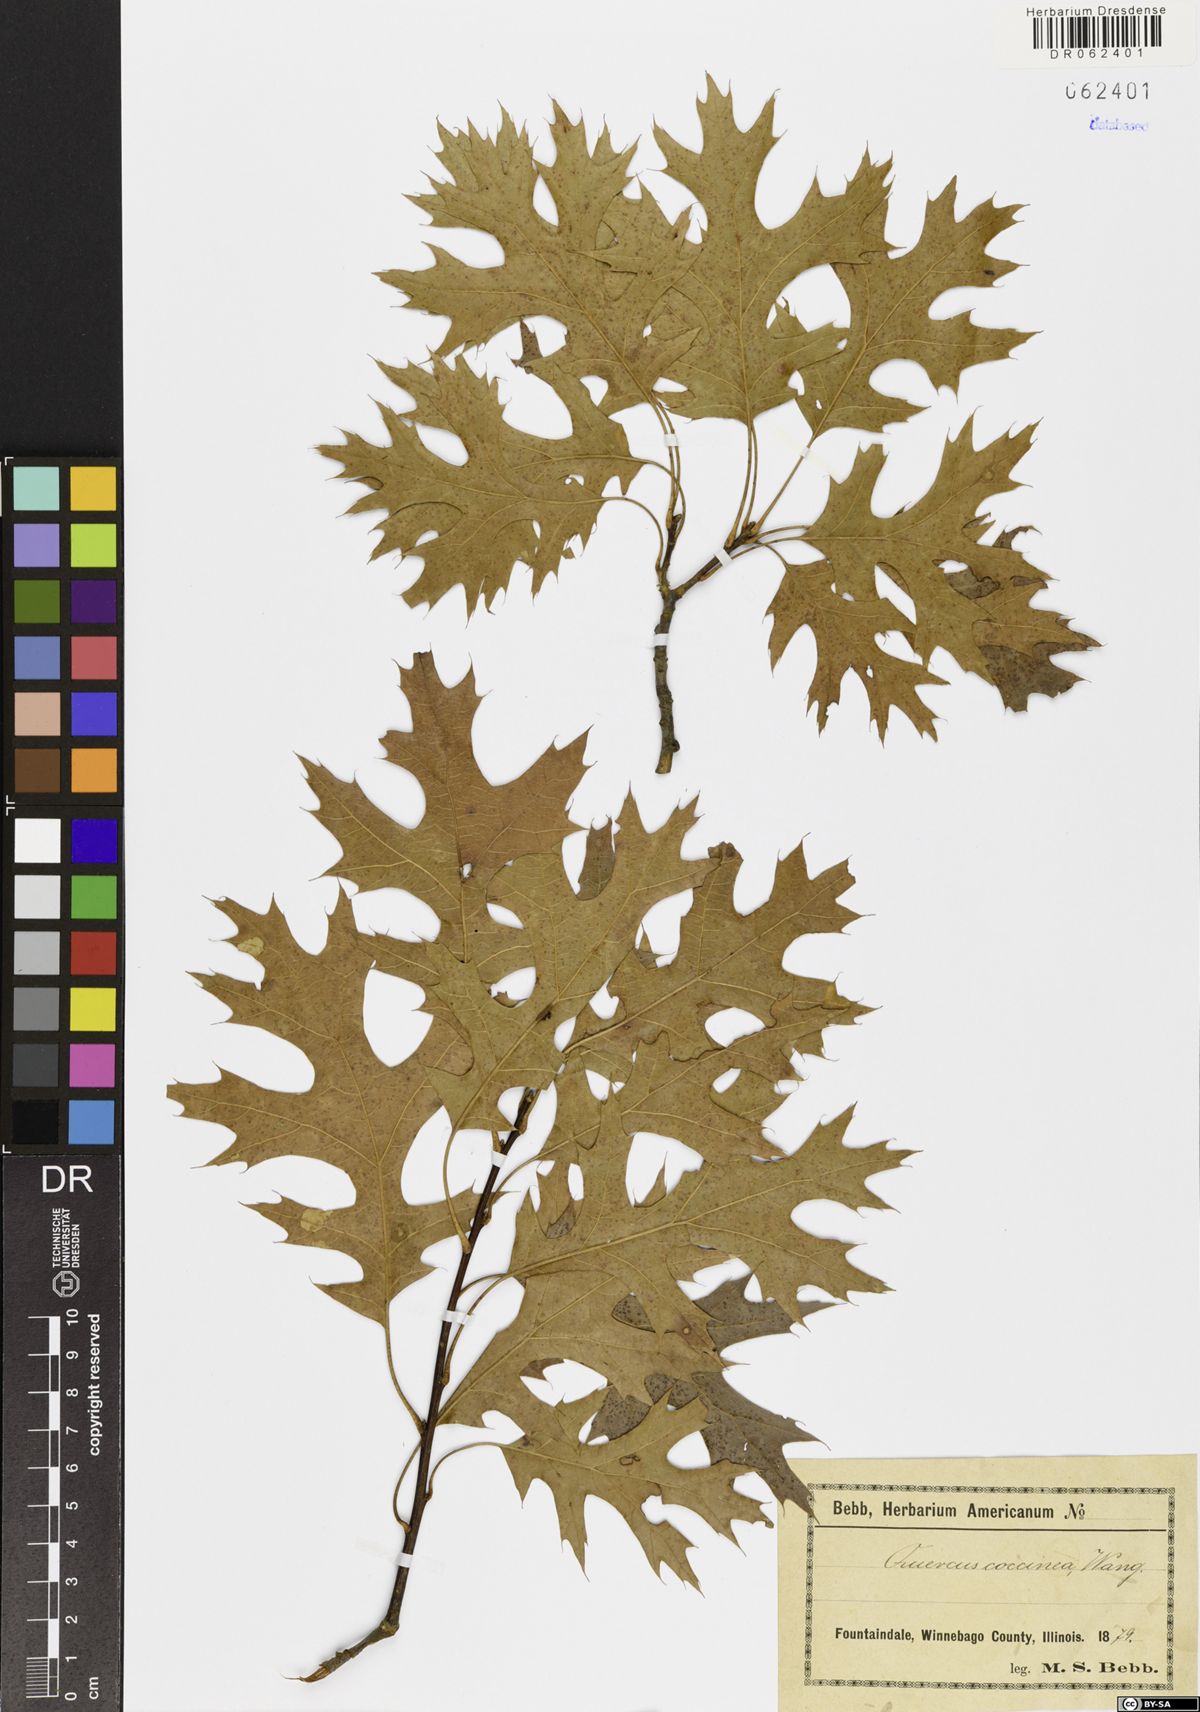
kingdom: Plantae
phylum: Tracheophyta
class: Magnoliopsida
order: Fagales
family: Fagaceae
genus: Quercus
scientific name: Quercus coccinea
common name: Scarlet oak
